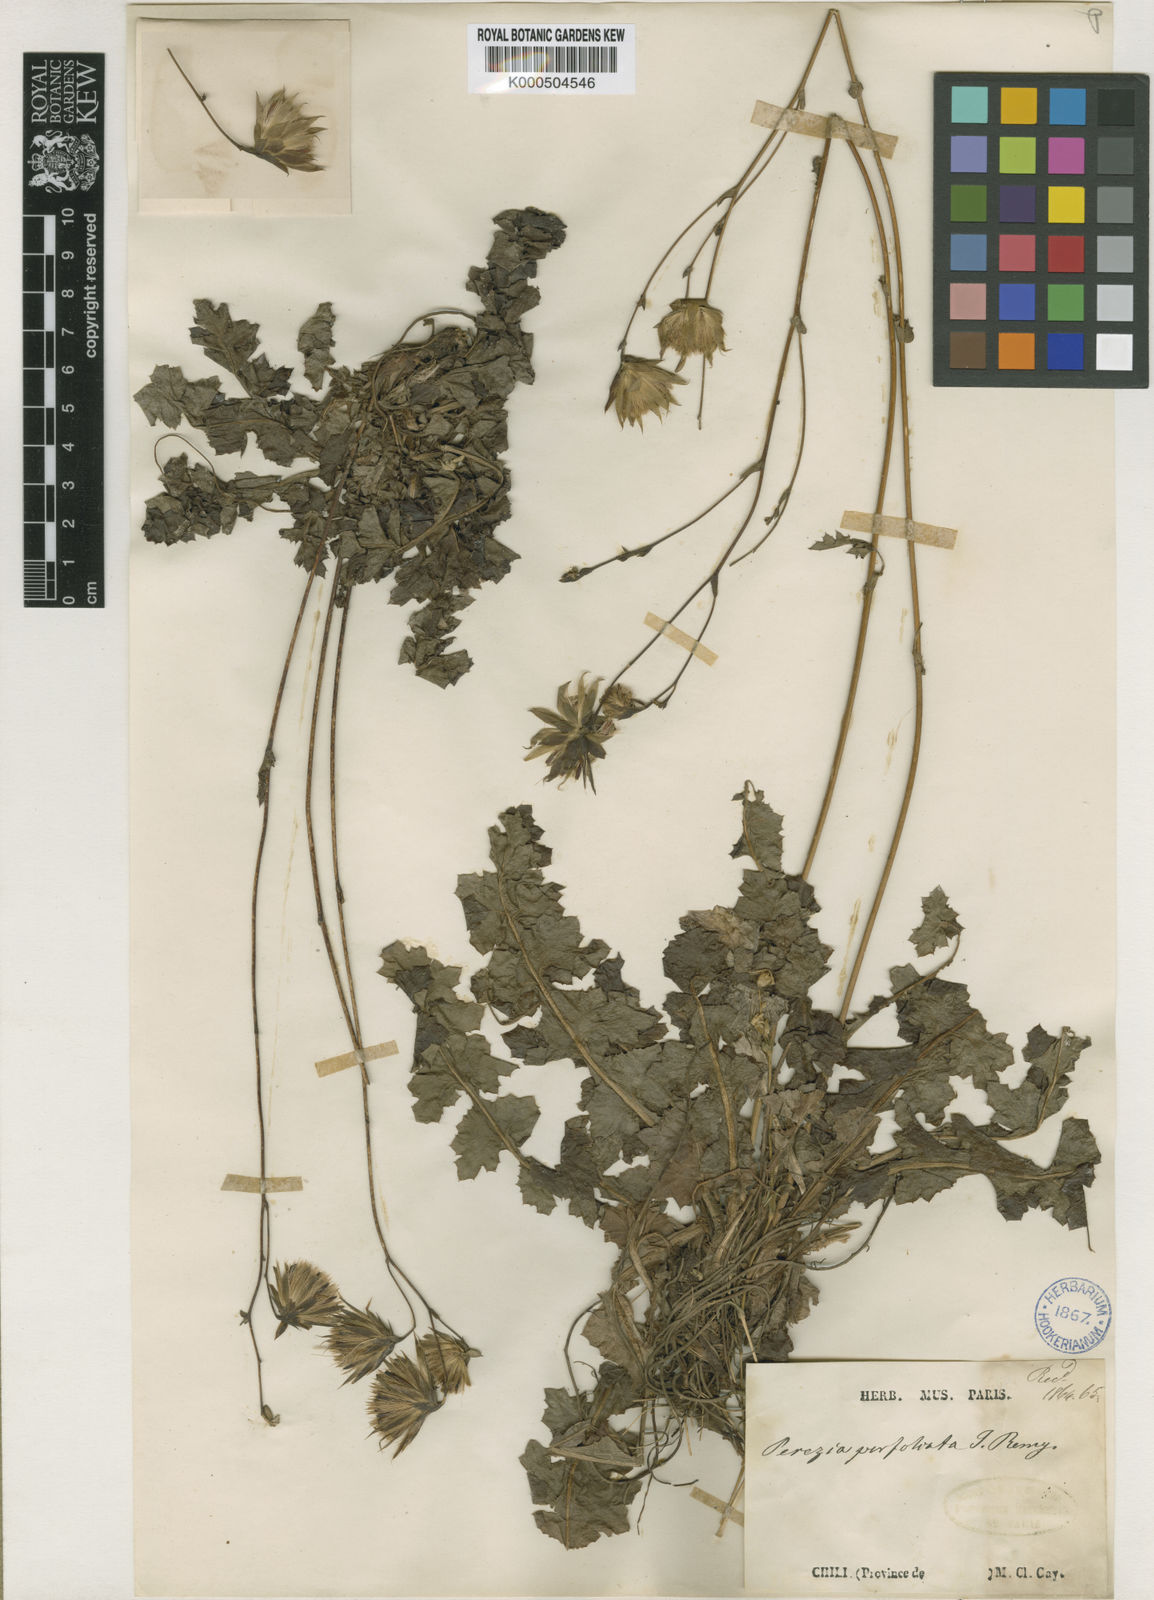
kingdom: Plantae
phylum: Tracheophyta
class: Magnoliopsida
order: Asterales
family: Asteraceae
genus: Perezia
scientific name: Perezia nutans
